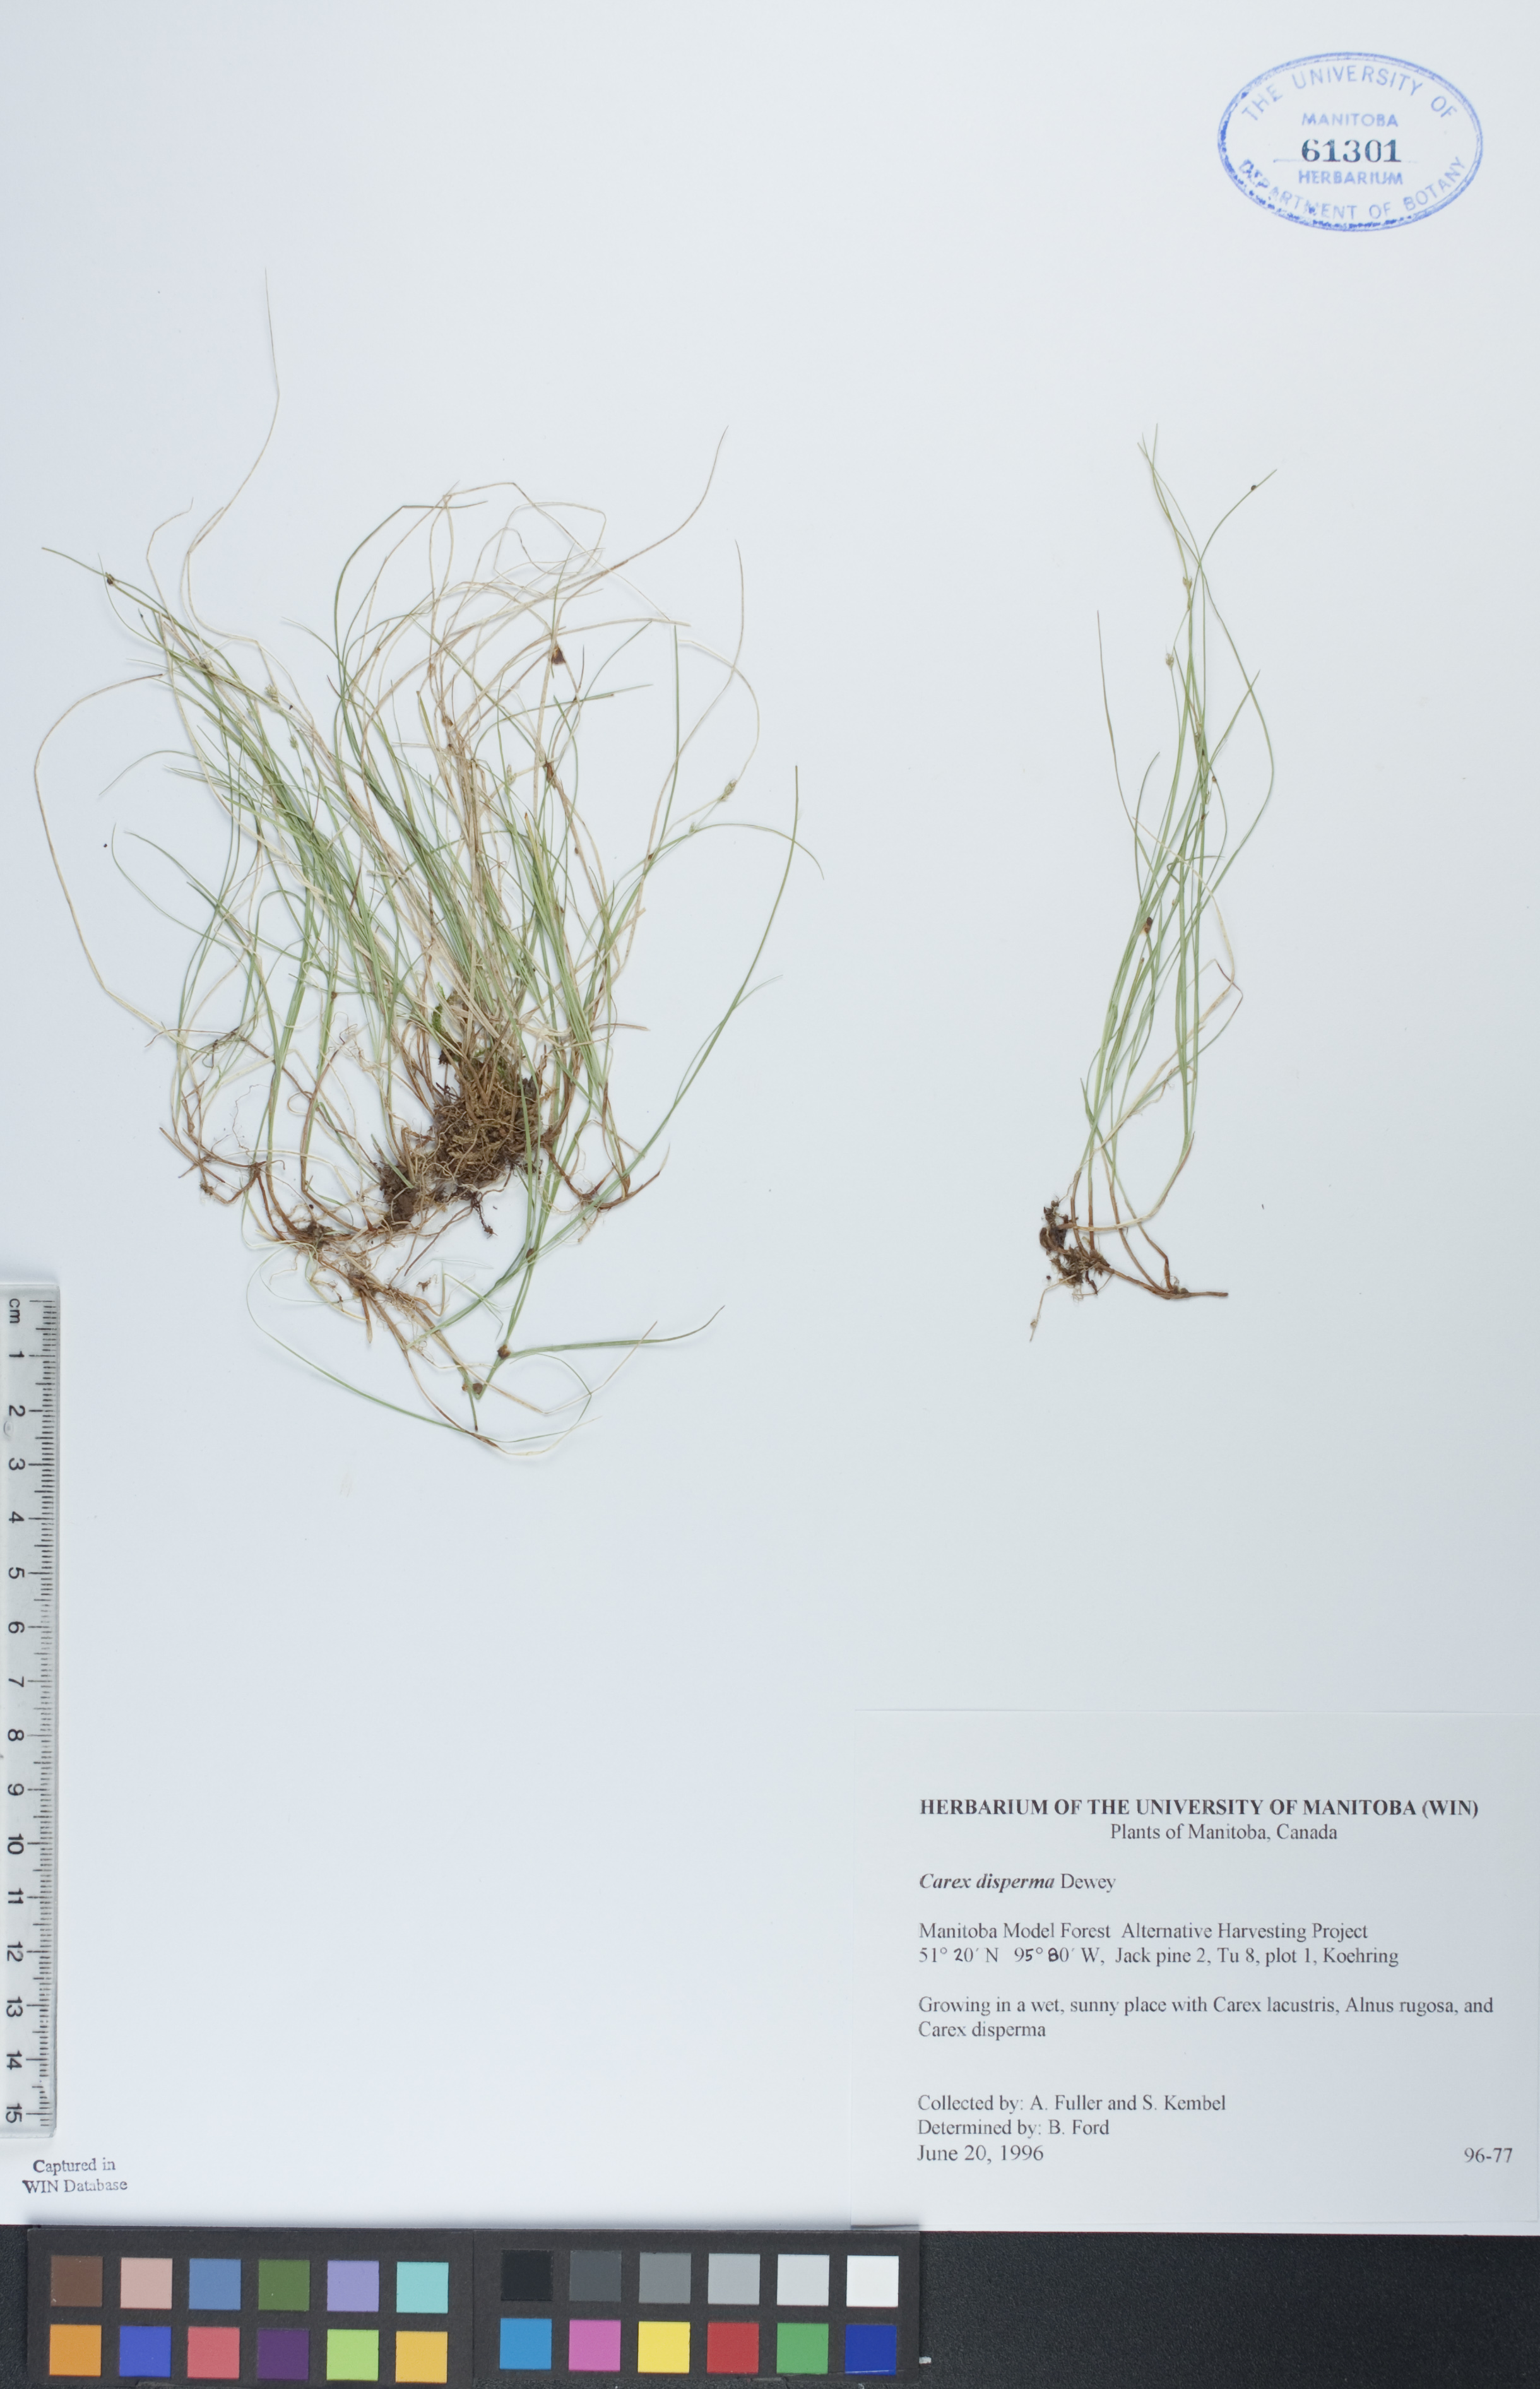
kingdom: Plantae
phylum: Tracheophyta
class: Liliopsida
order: Poales
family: Cyperaceae
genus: Carex
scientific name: Carex disperma
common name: Short-leaved sedge
